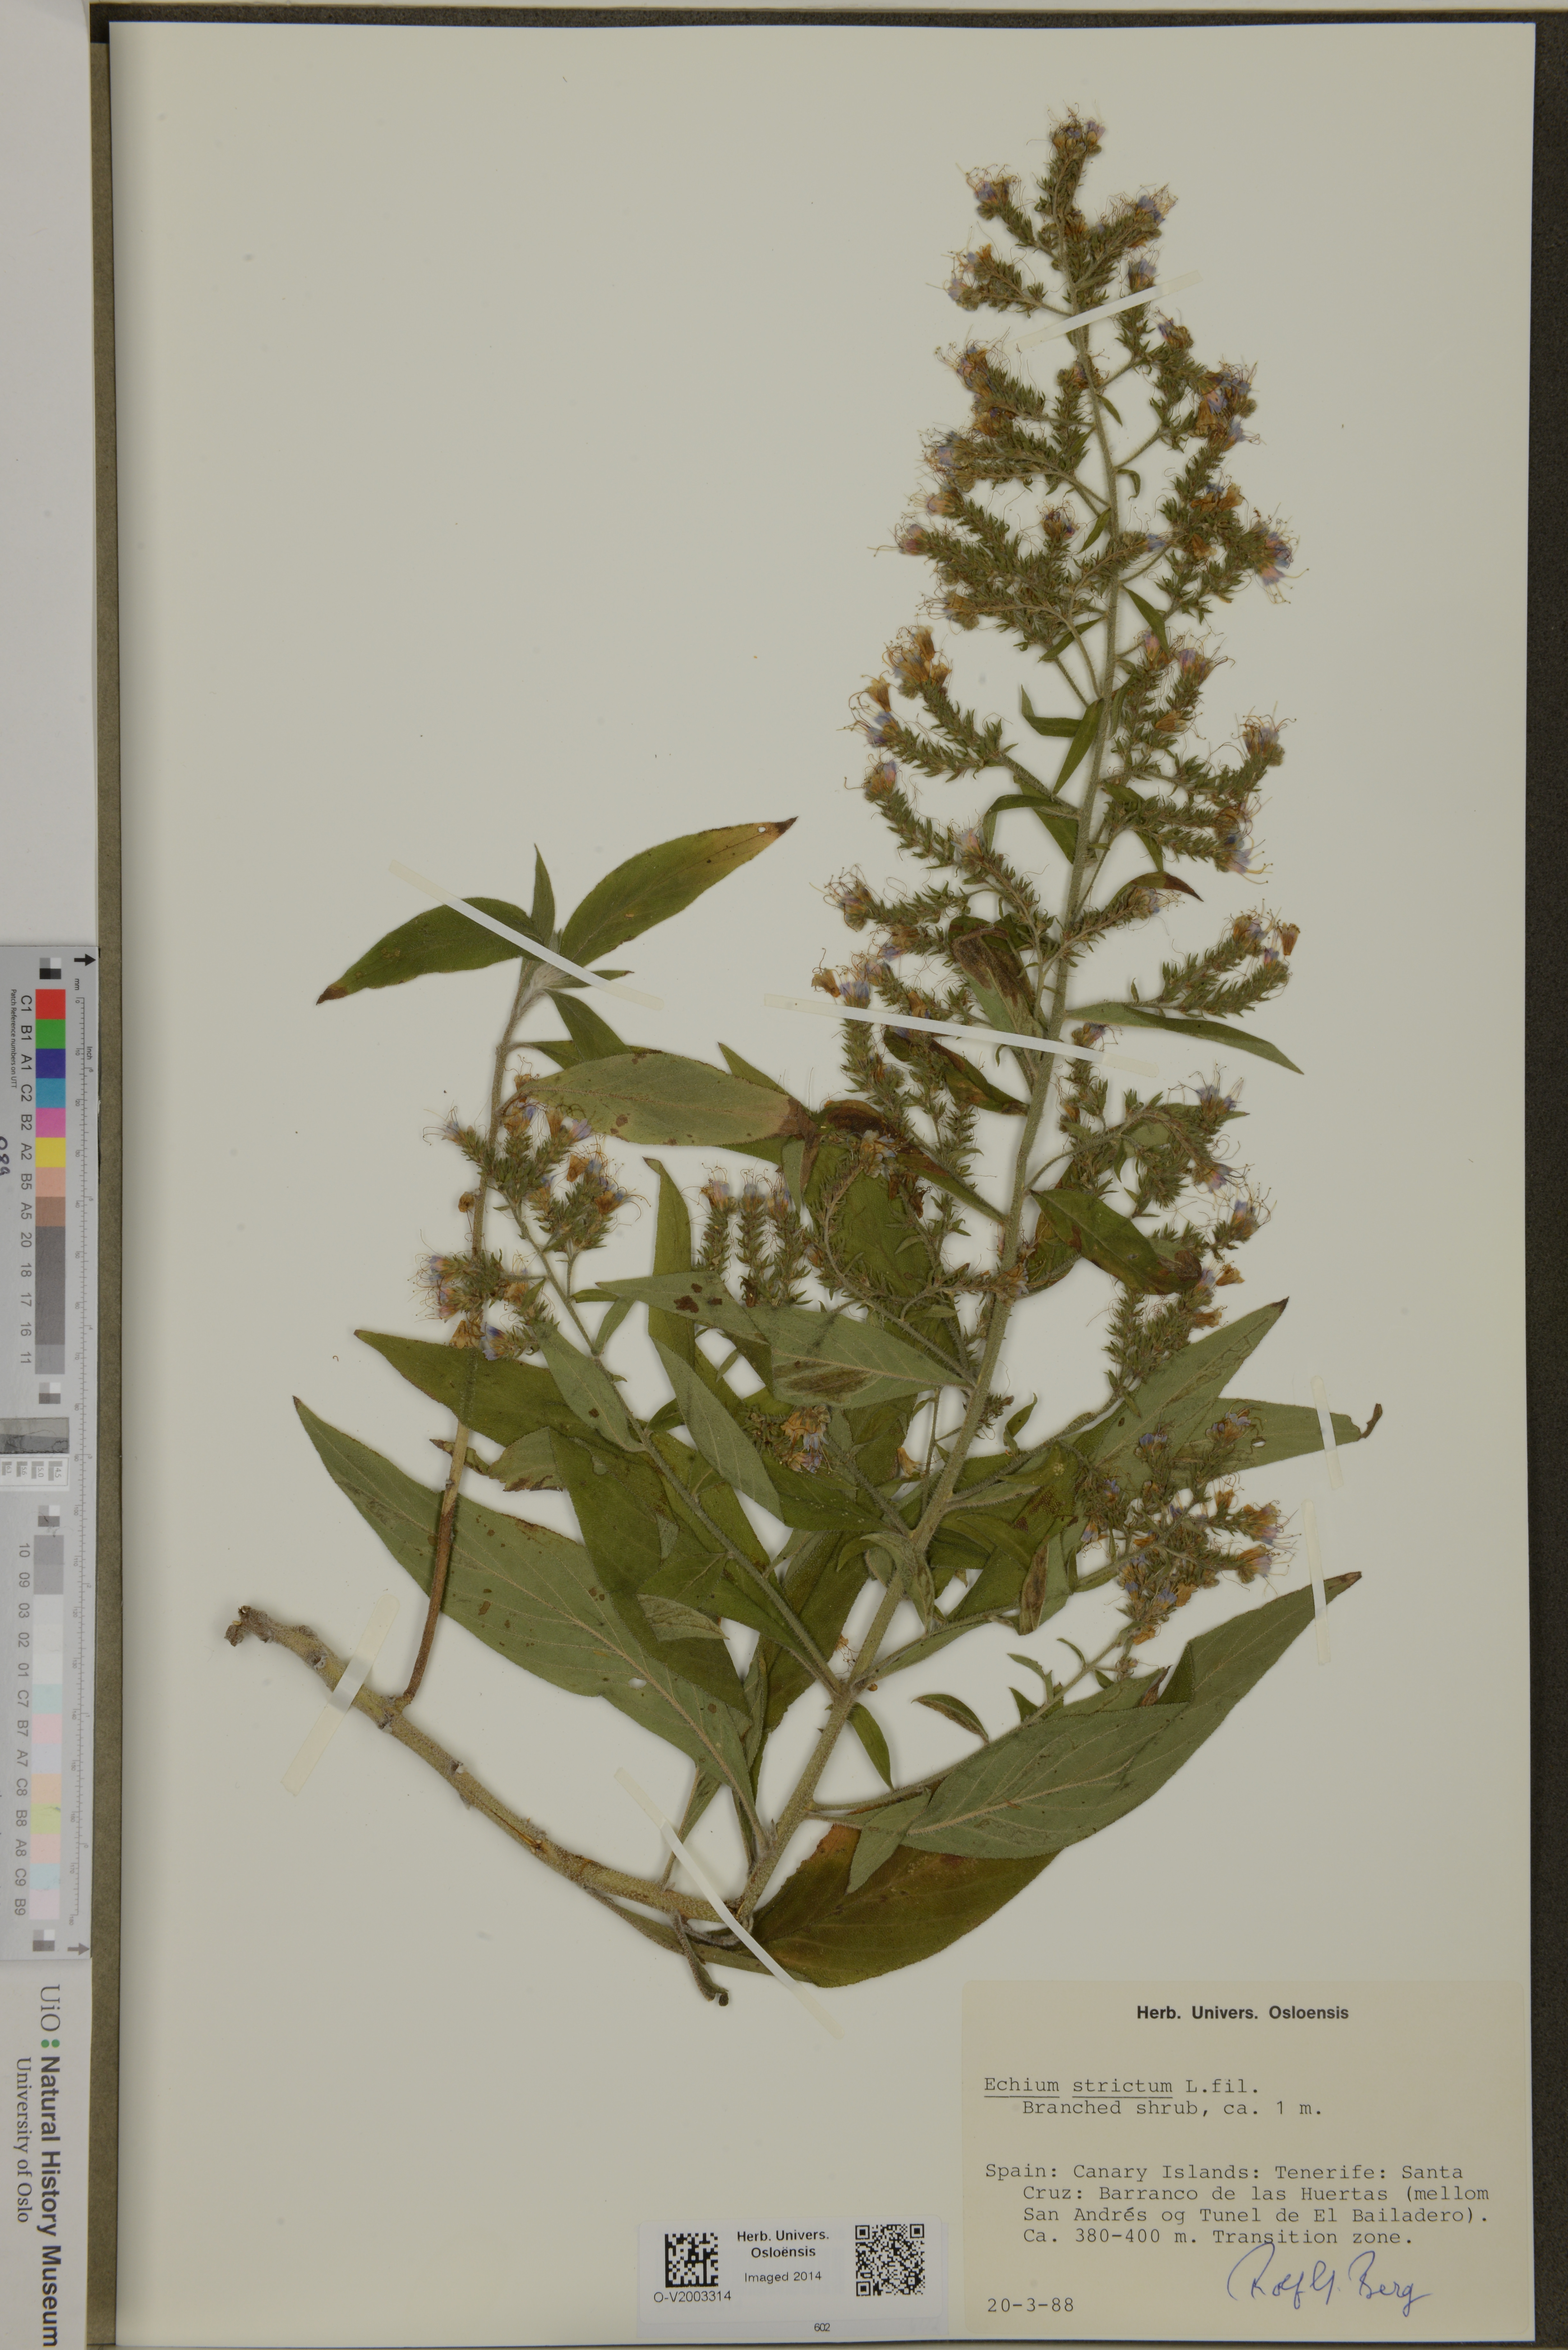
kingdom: Plantae
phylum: Tracheophyta
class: Magnoliopsida
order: Boraginales
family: Boraginaceae
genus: Echium
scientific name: Echium strictum
